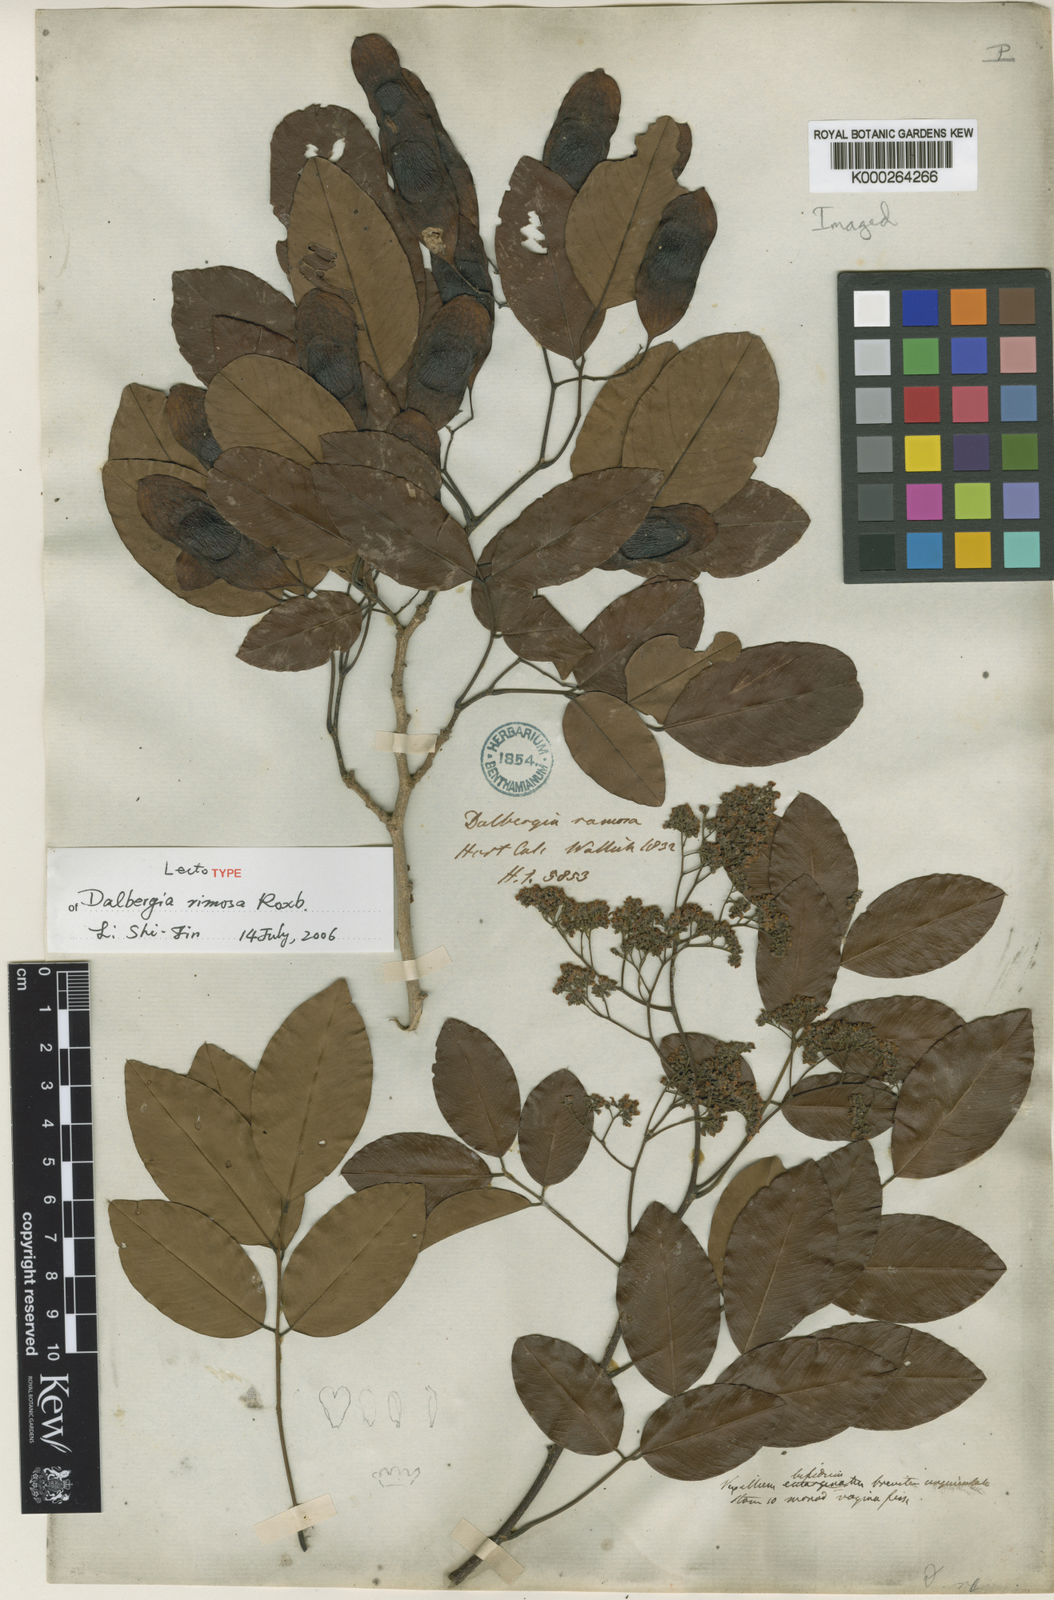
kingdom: Plantae
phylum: Tracheophyta
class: Magnoliopsida
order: Fabales
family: Fabaceae
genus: Dalbergia
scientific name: Dalbergia rimosa
